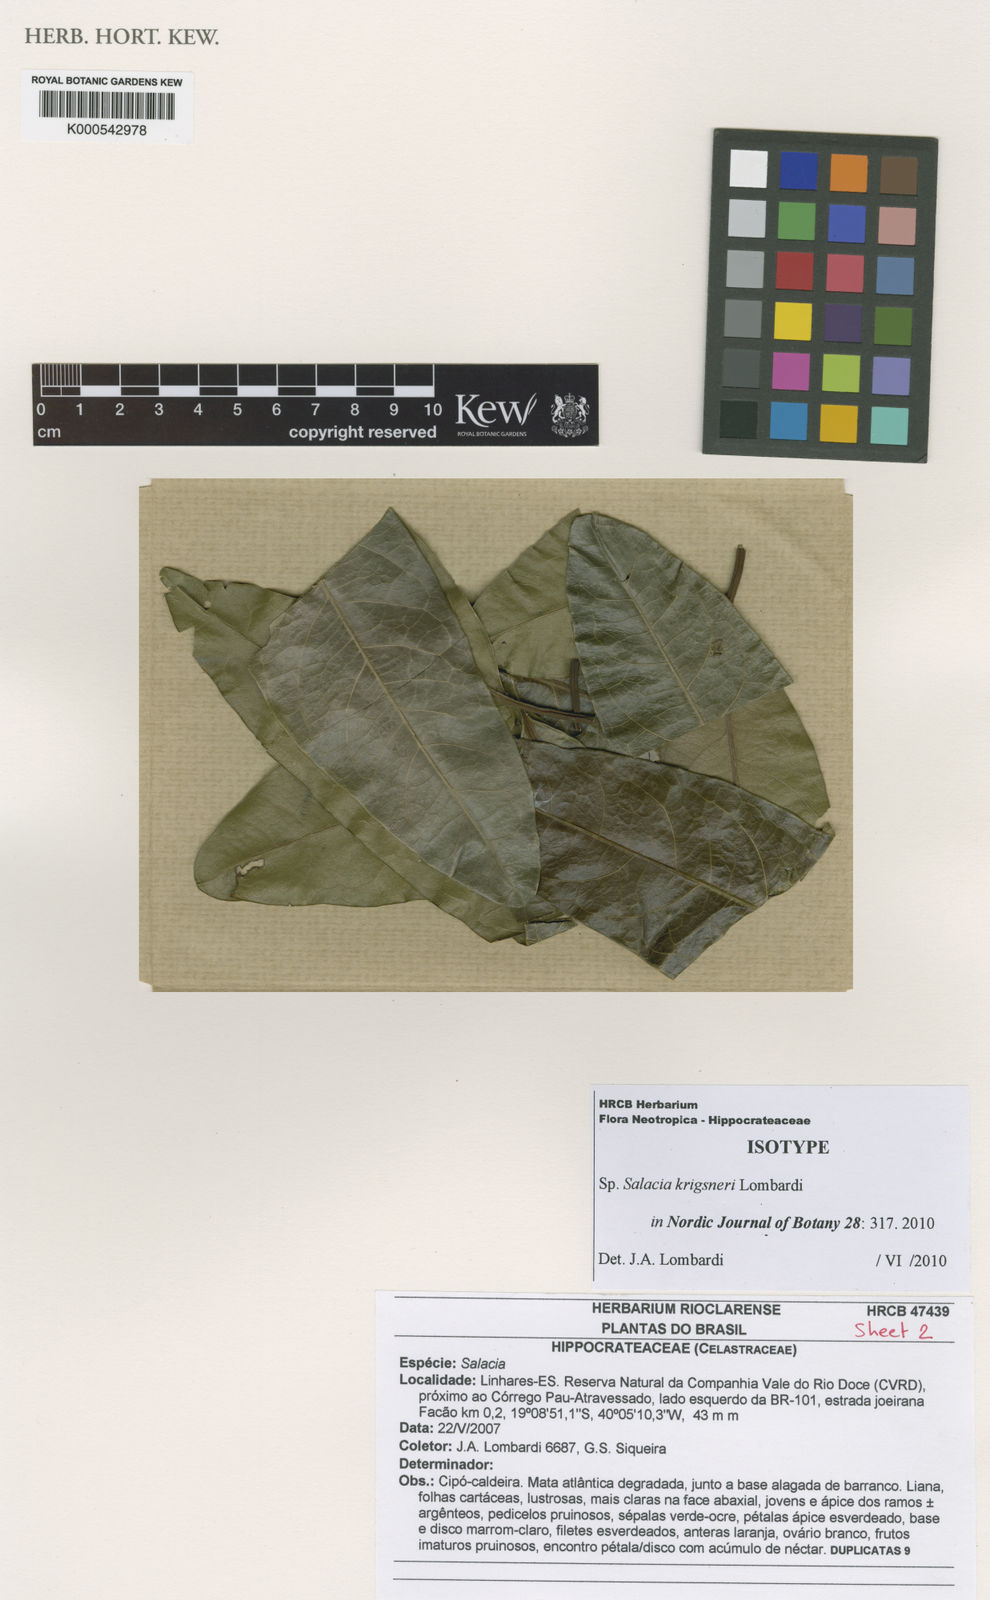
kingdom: Plantae
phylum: Tracheophyta
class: Magnoliopsida
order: Celastrales
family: Celastraceae
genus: Salacia
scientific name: Salacia krigsneri
